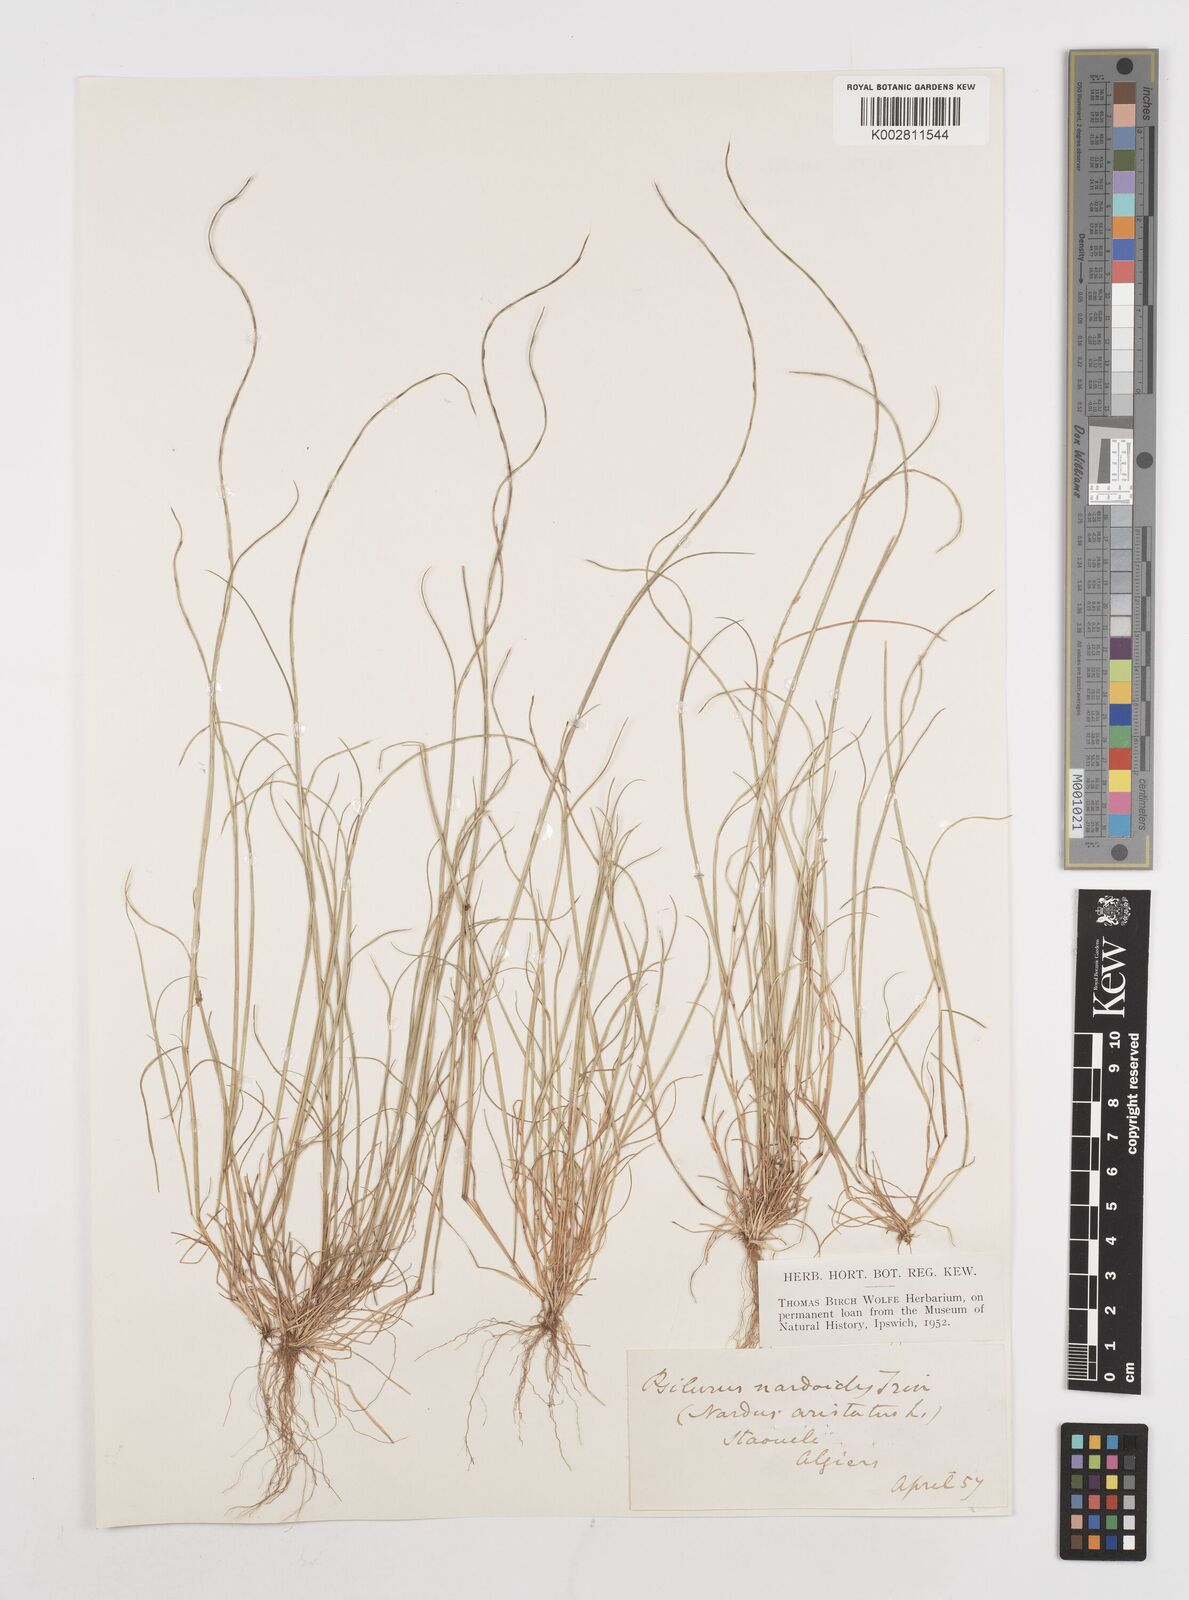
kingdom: Plantae
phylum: Tracheophyta
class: Liliopsida
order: Poales
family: Poaceae
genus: Festuca
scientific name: Festuca
